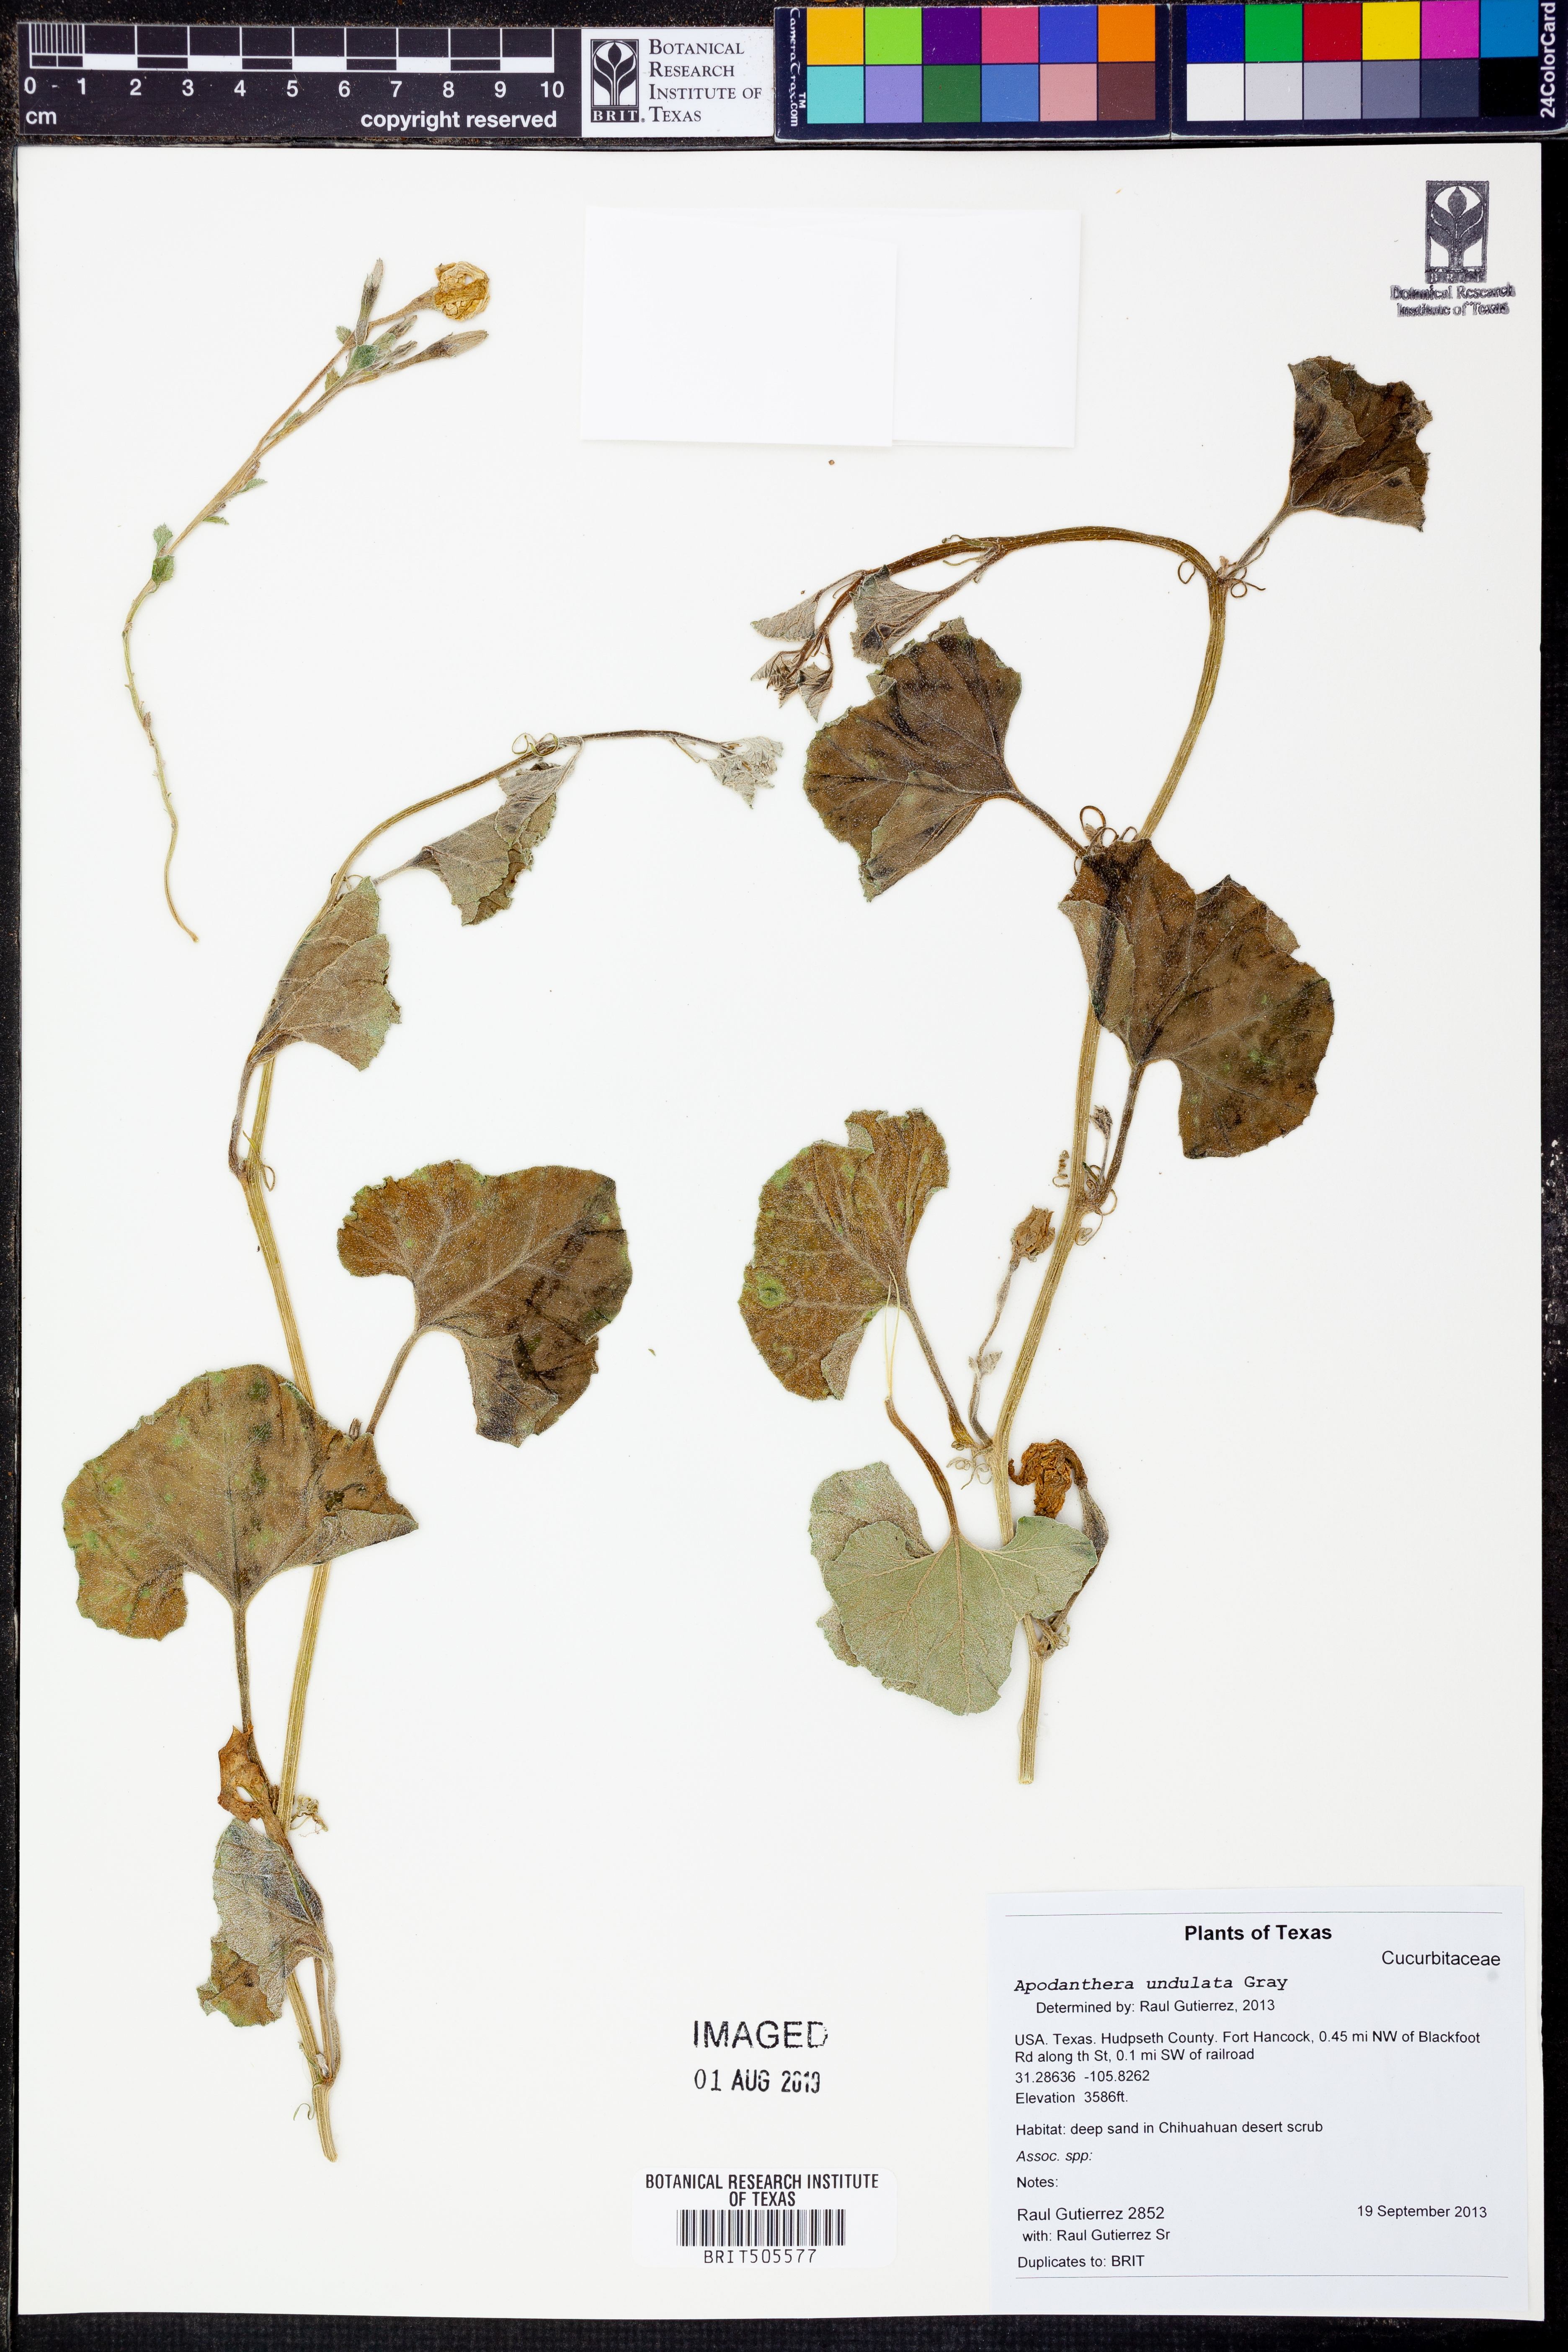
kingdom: Plantae
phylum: Tracheophyta
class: Magnoliopsida
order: Cucurbitales
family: Cucurbitaceae
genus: Apodanthera
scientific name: Apodanthera undulata
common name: Melon-loco
